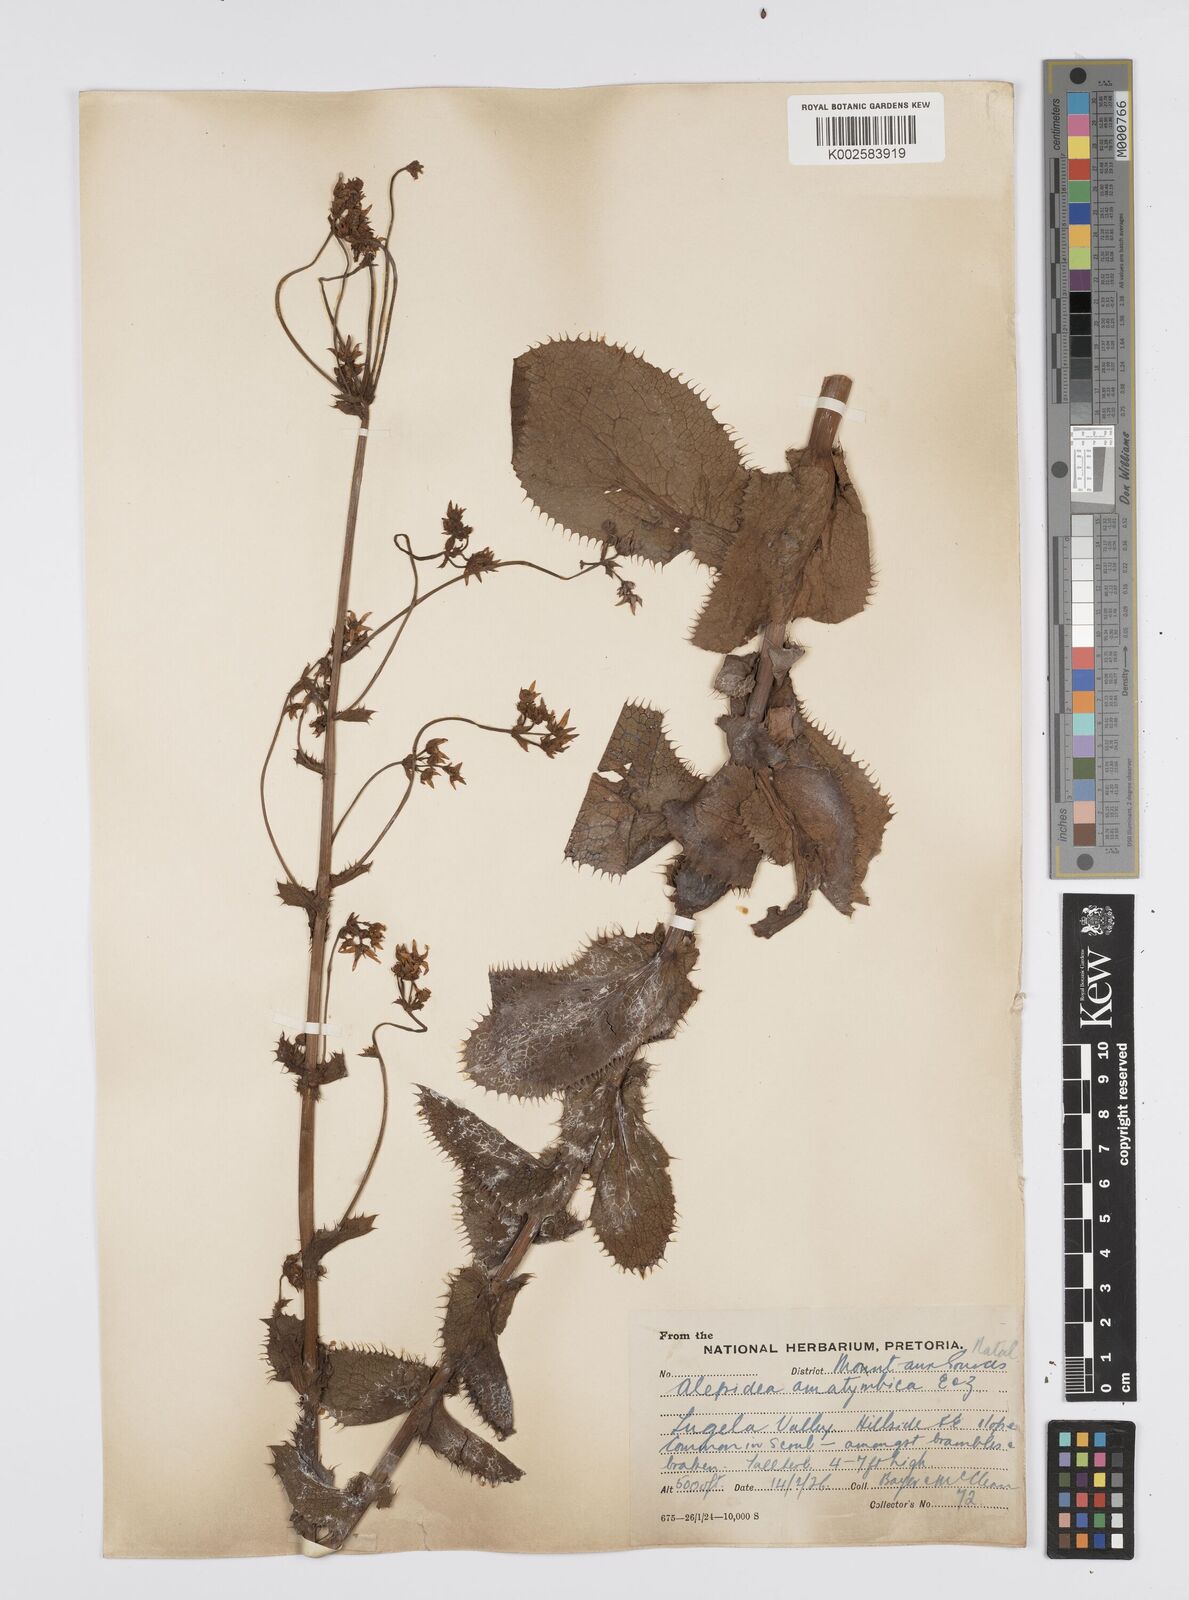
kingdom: Plantae
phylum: Tracheophyta
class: Magnoliopsida
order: Apiales
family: Apiaceae
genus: Alepidea
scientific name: Alepidea amatymbica
